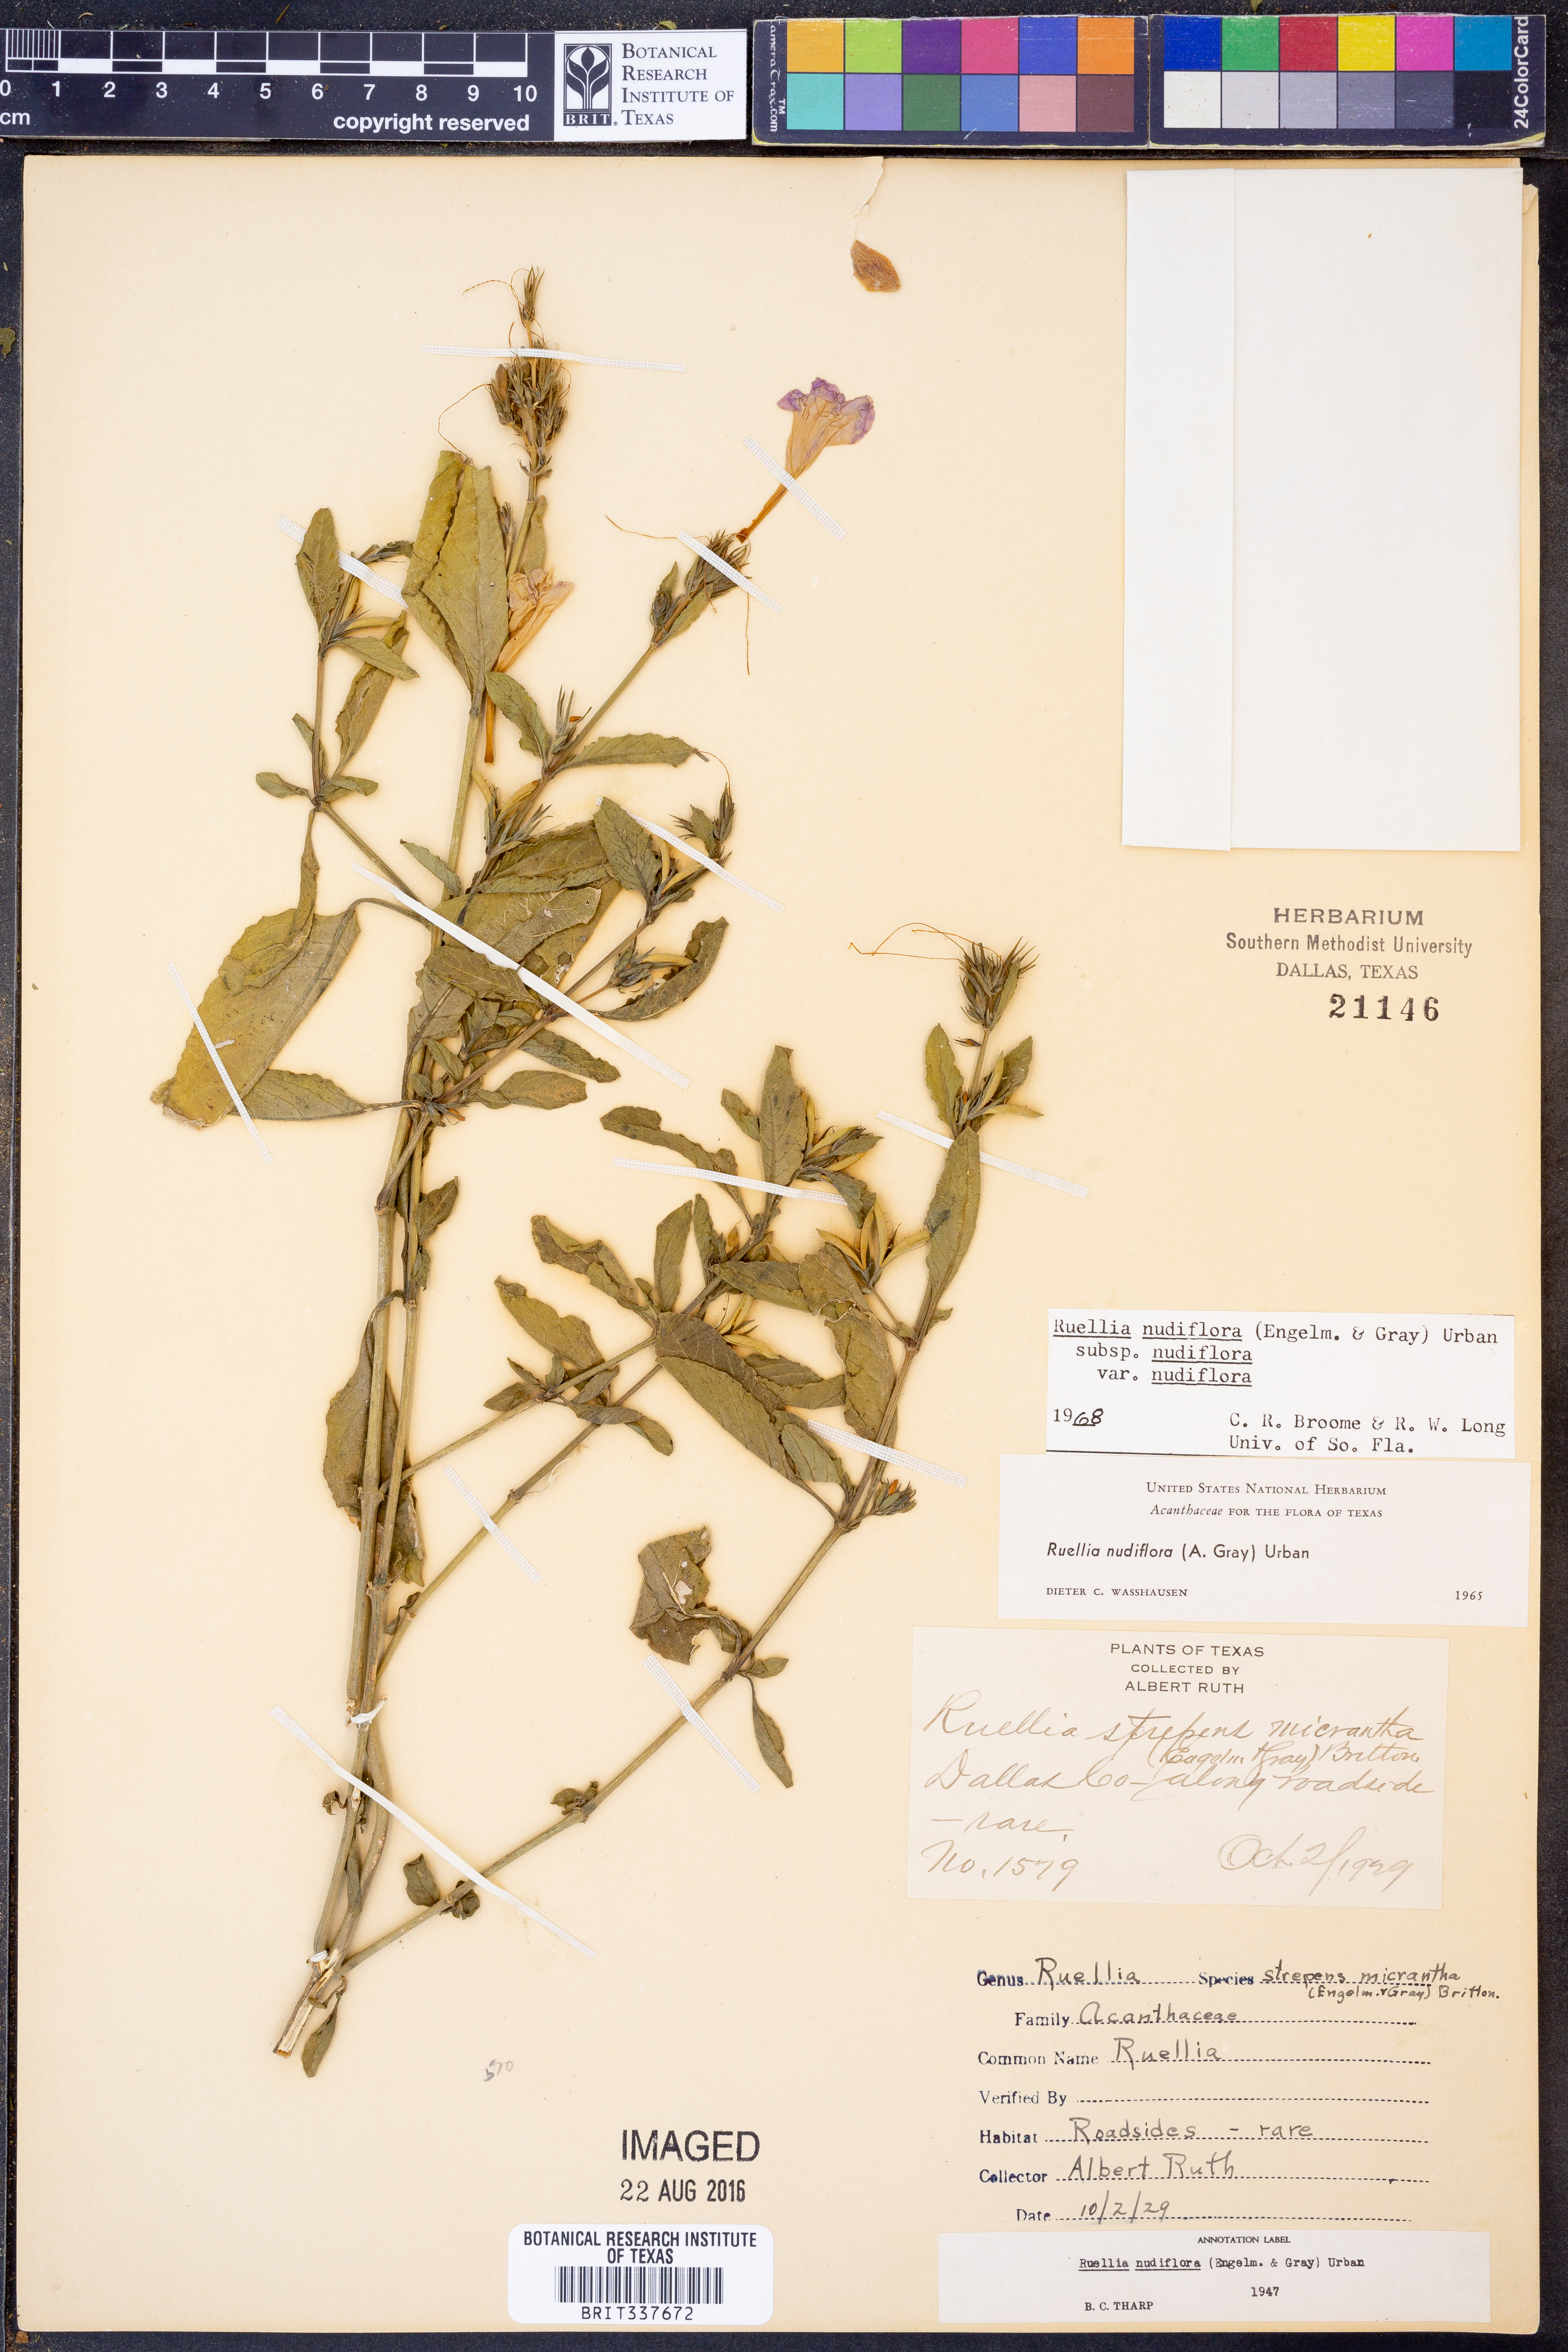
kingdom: Plantae
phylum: Tracheophyta
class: Magnoliopsida
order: Lamiales
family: Acanthaceae
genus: Ruellia
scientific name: Ruellia ciliatiflora
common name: Hairyflower wild petunia
